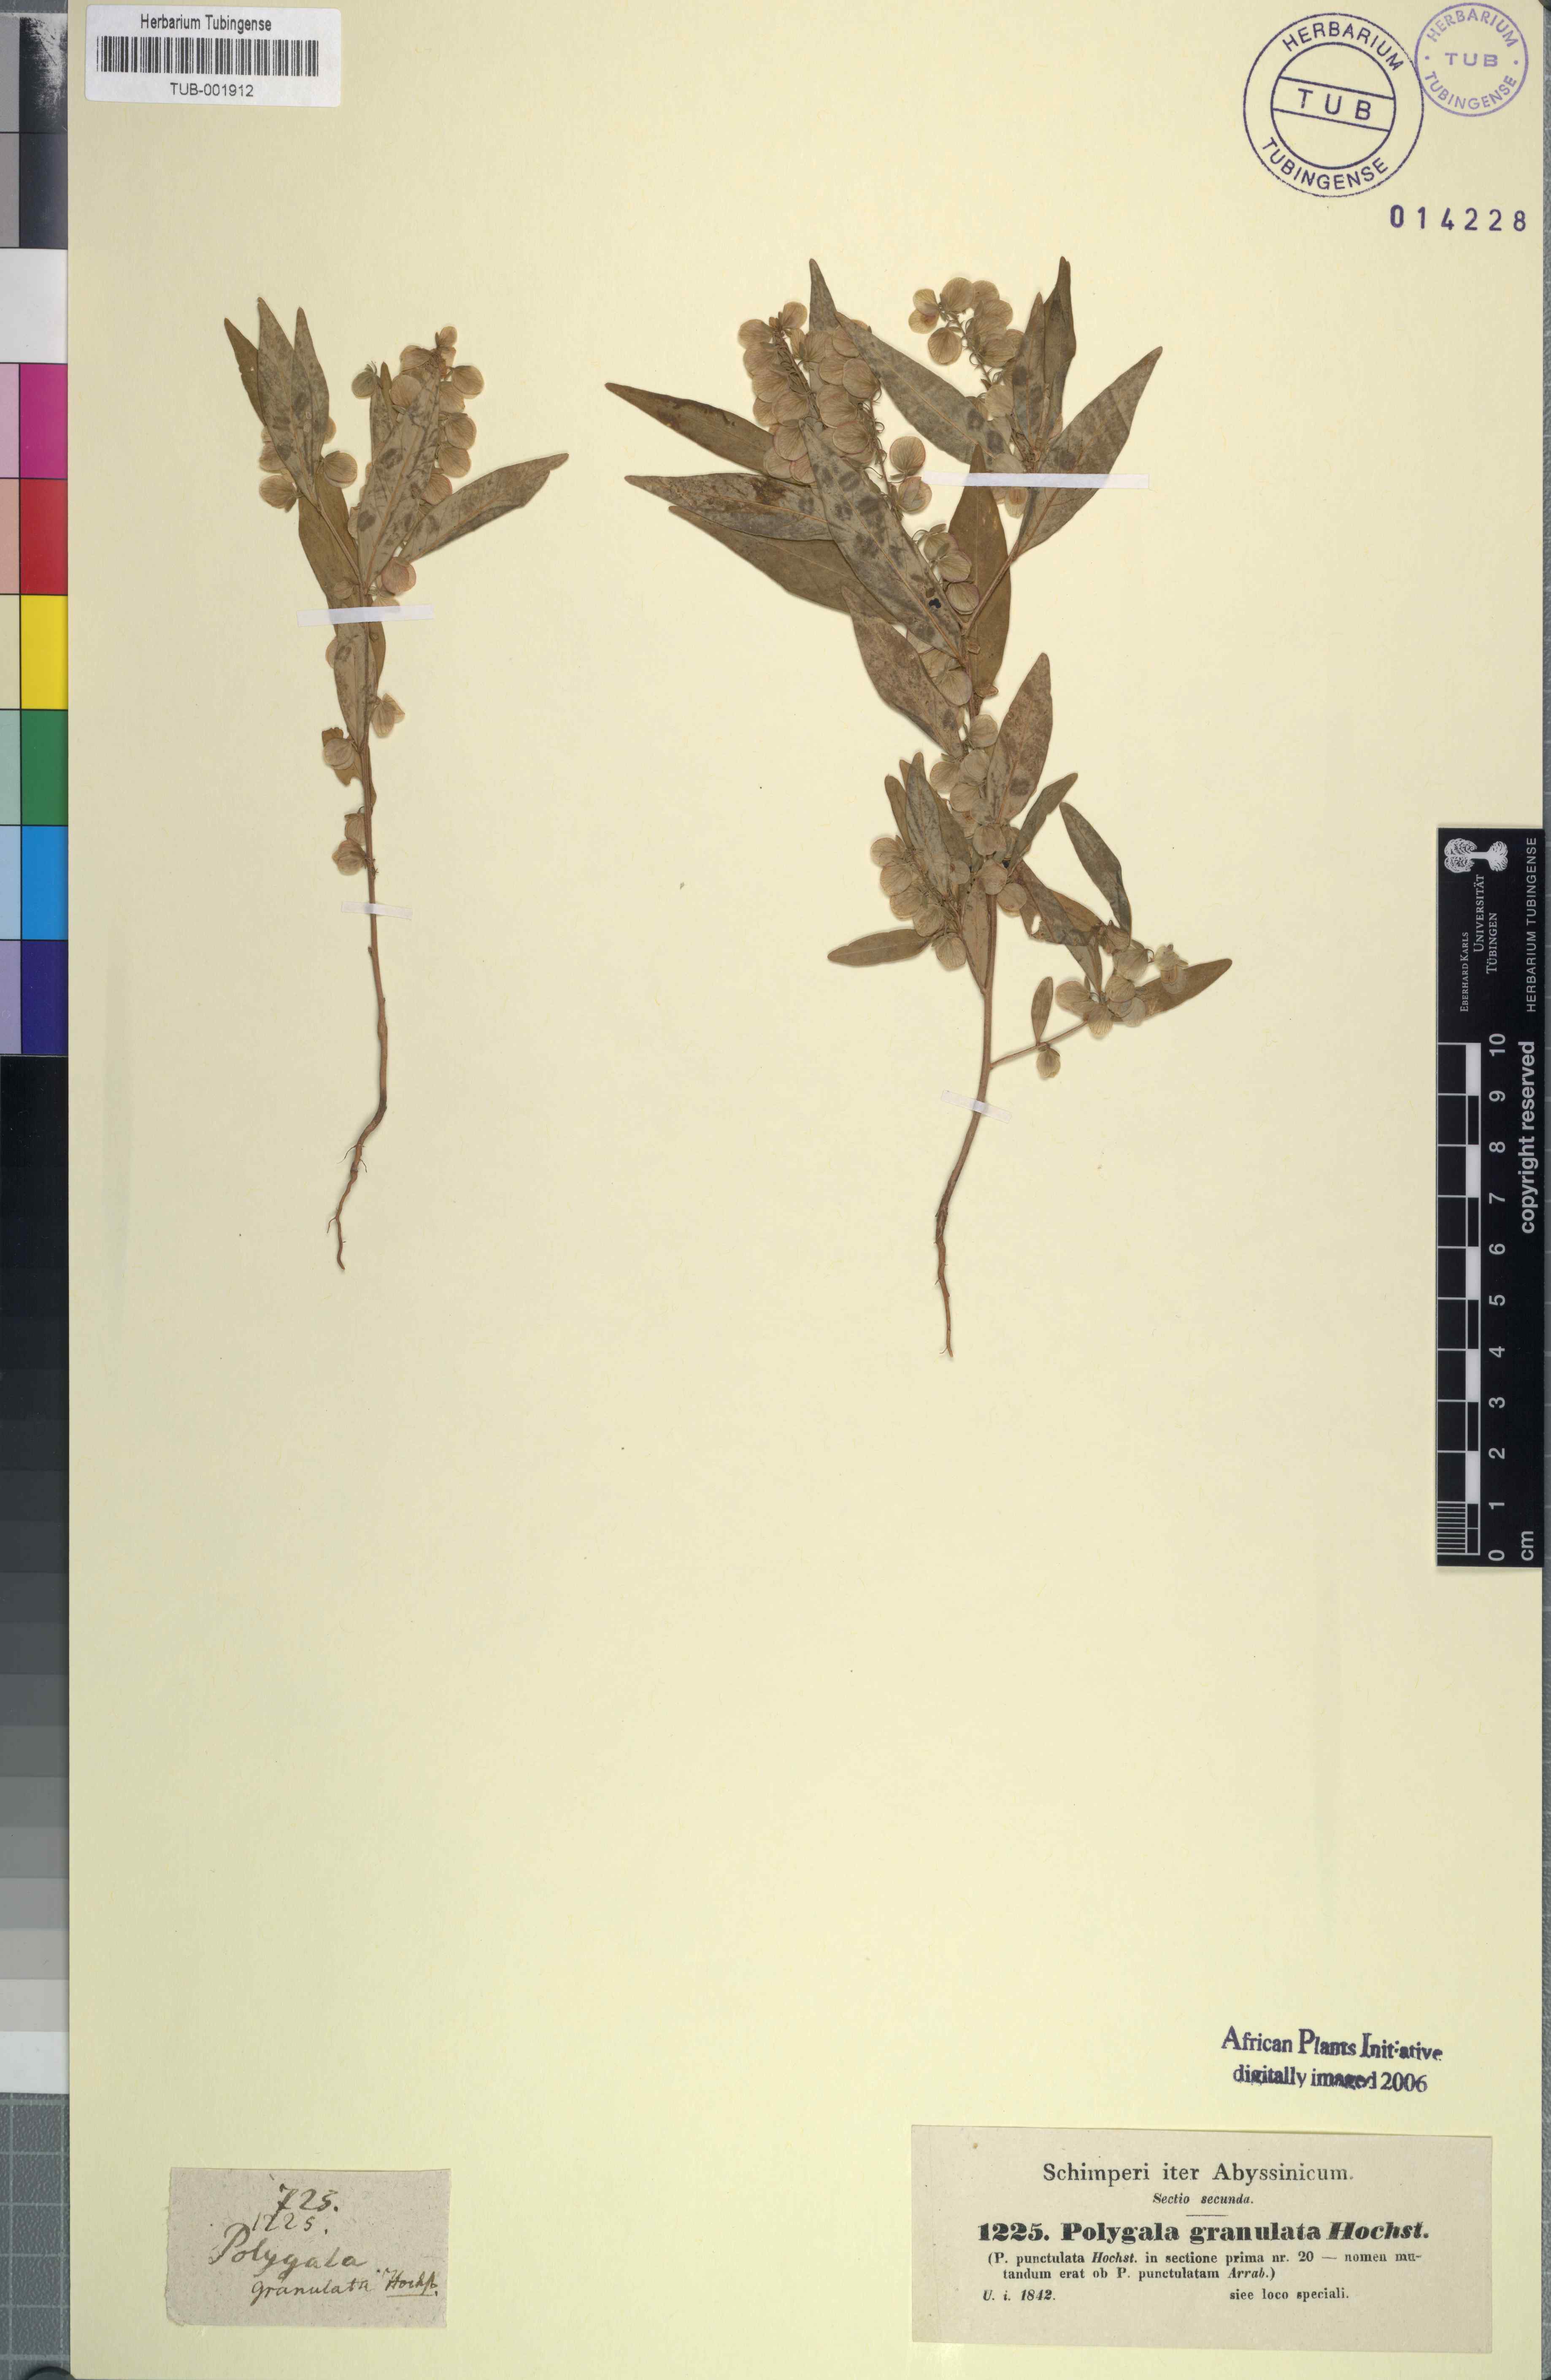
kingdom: Plantae
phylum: Tracheophyta
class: Magnoliopsida
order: Fabales
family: Polygalaceae
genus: Polygala
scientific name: Polygala sphenoptera
